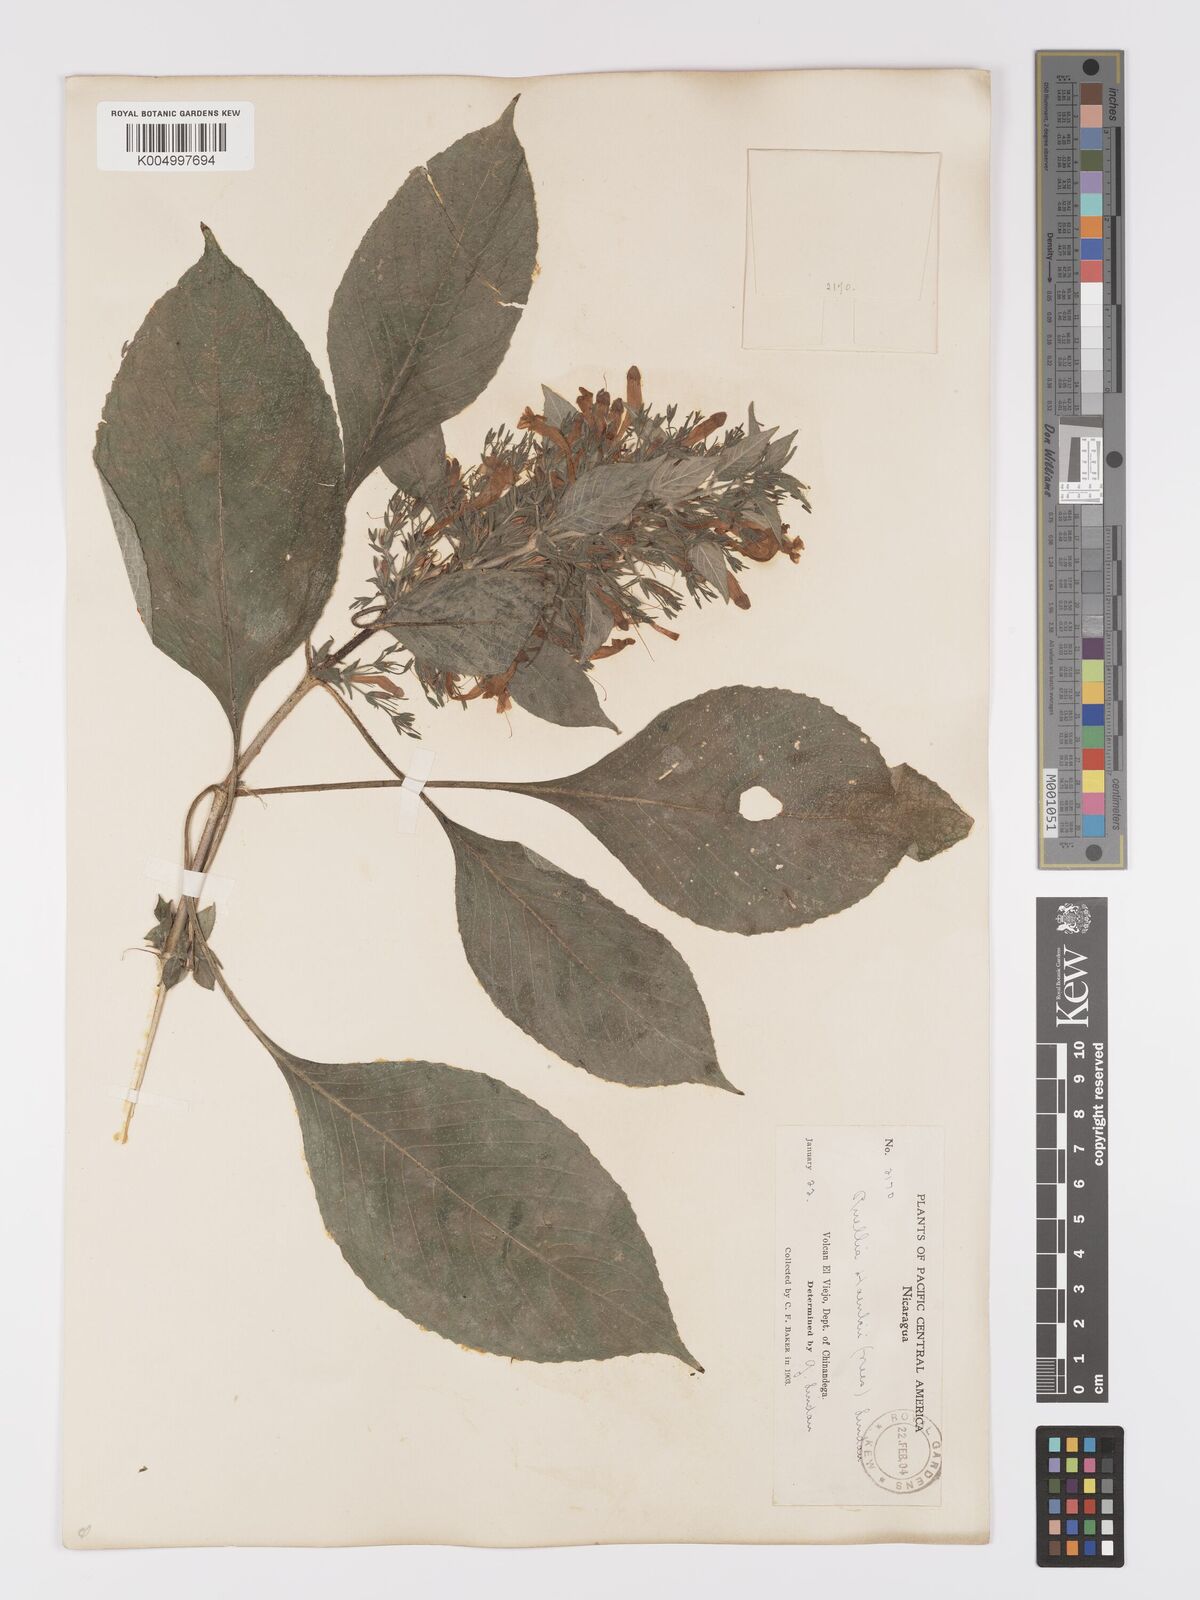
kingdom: Plantae
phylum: Tracheophyta
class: Magnoliopsida
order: Lamiales
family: Acanthaceae
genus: Ruellia
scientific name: Ruellia inundata
